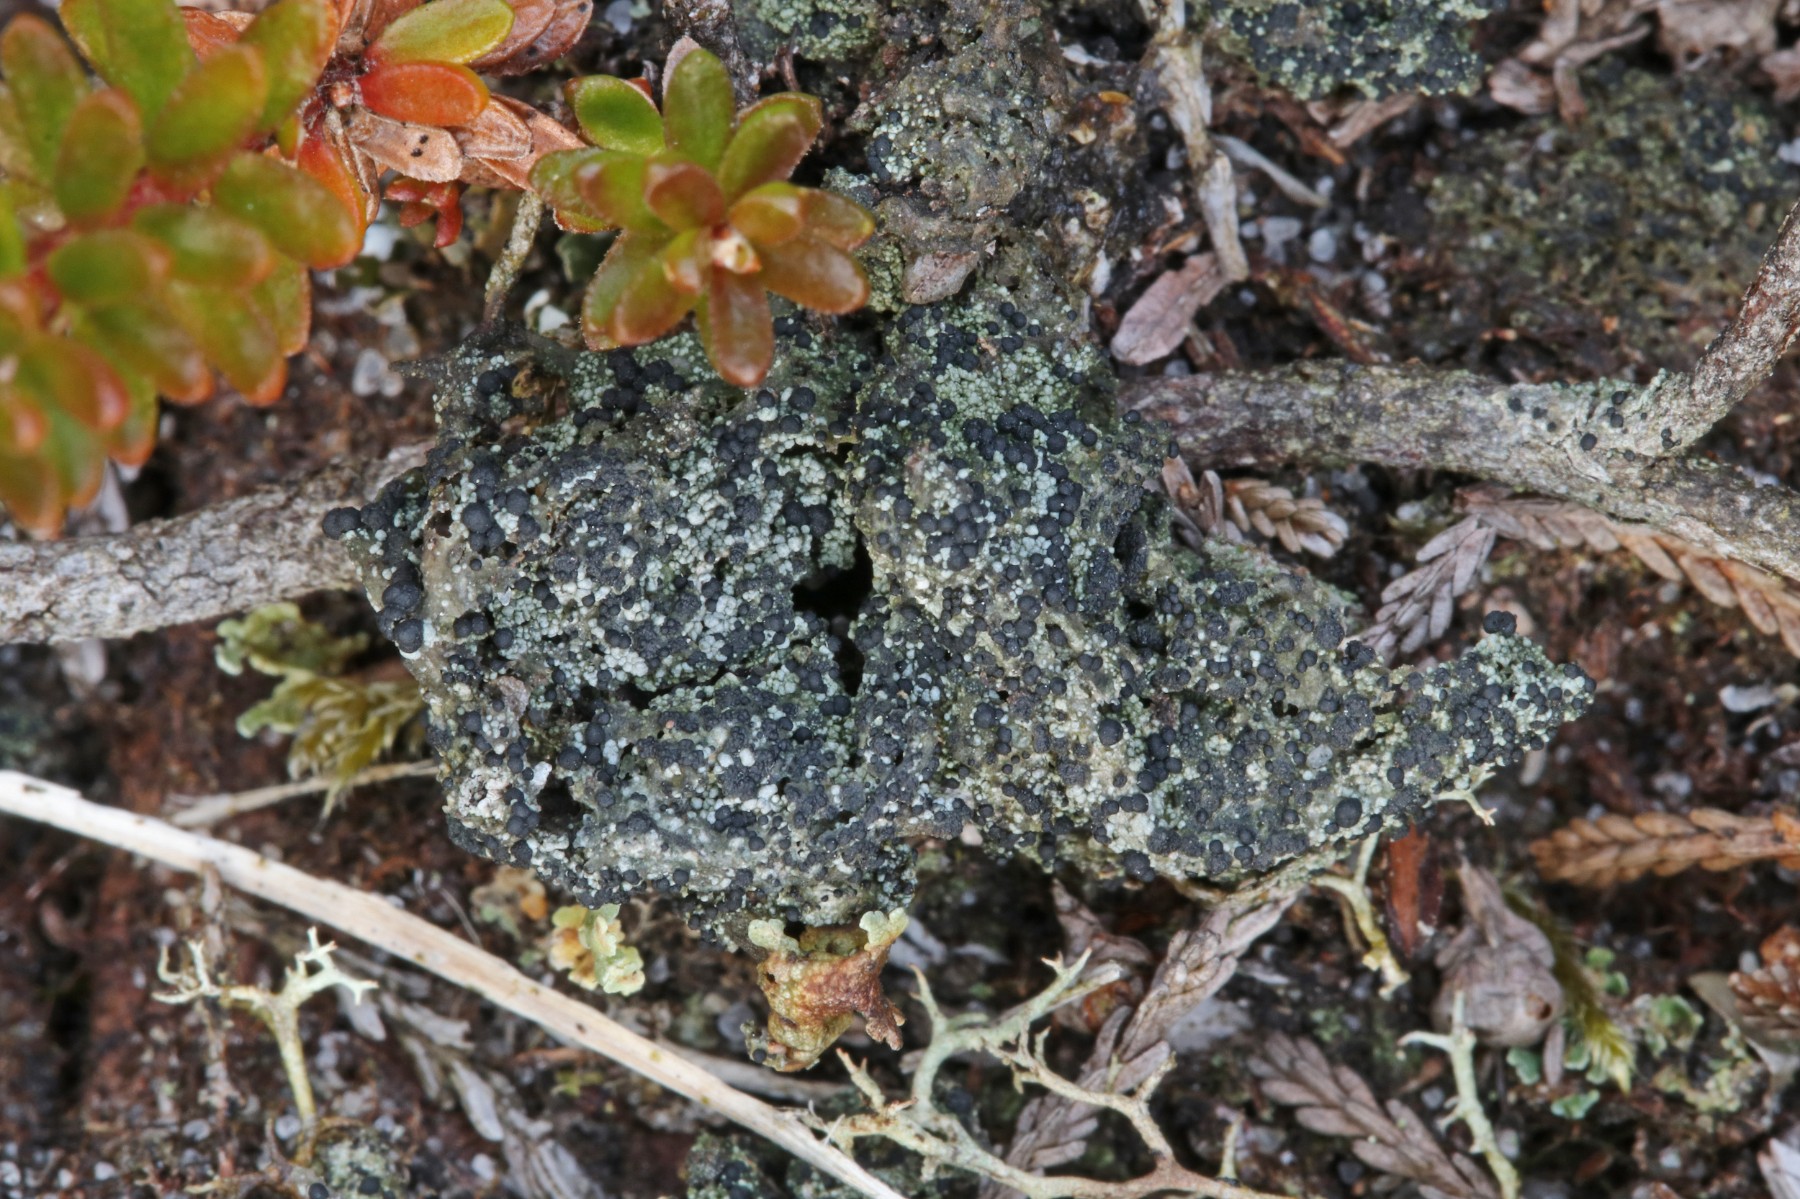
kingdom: Fungi
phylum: Ascomycota
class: Lecanoromycetes
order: Lecanorales
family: Byssolomataceae
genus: Micarea
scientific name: Micarea lignaria
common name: tørve-knaplav
